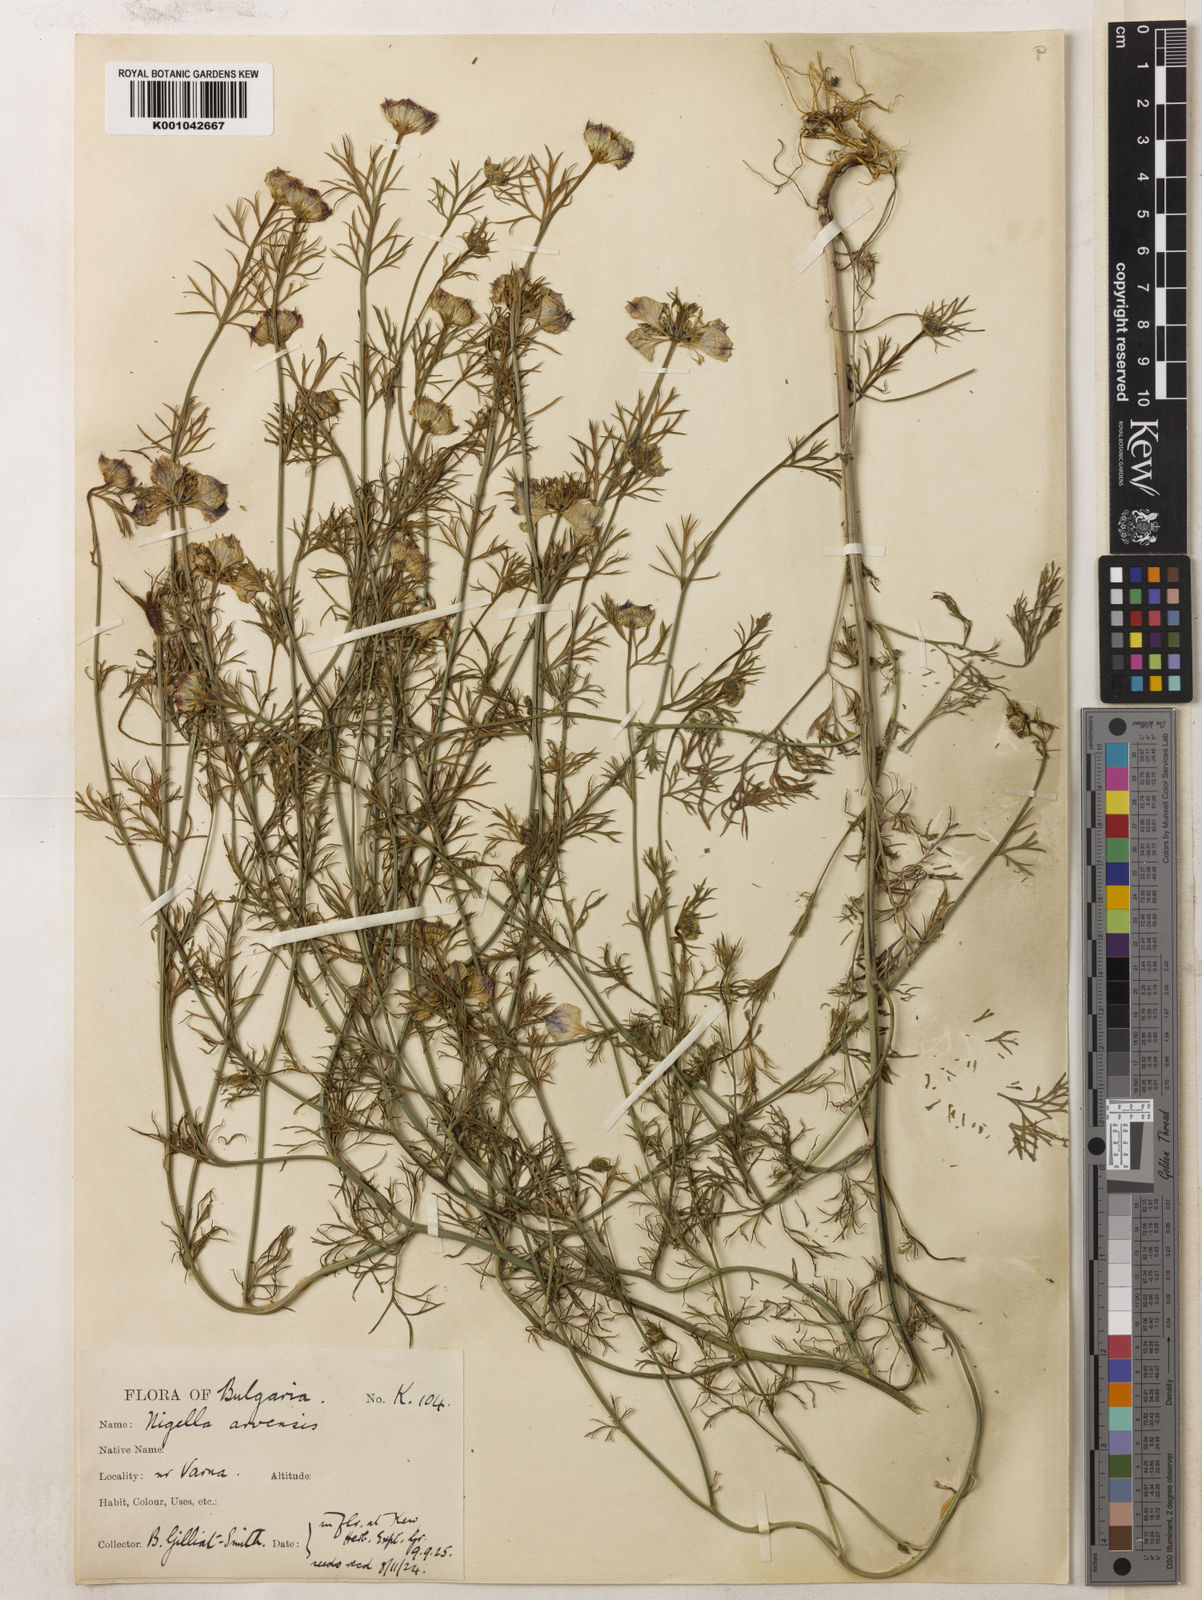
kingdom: Plantae
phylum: Tracheophyta
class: Magnoliopsida
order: Ranunculales
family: Ranunculaceae
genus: Nigella
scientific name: Nigella arvensis
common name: Wild fennel-flower
